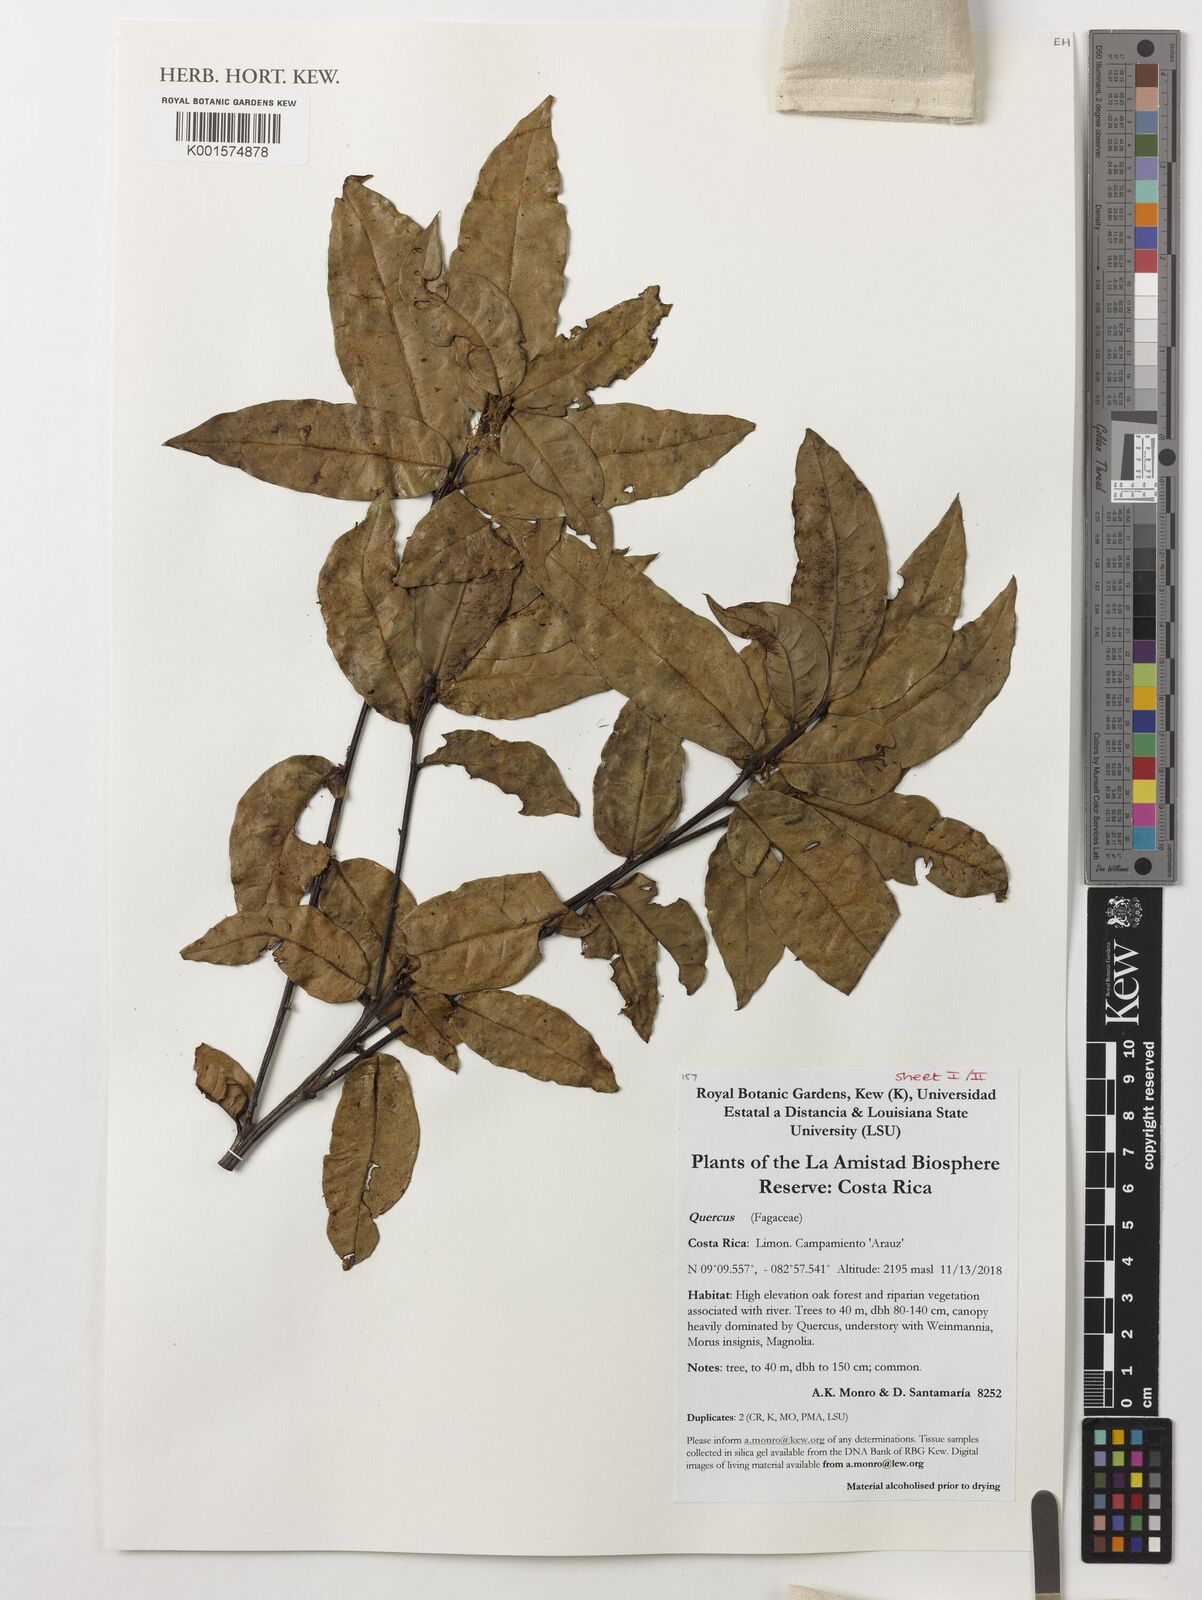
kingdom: Plantae
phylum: Tracheophyta
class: Magnoliopsida
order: Fagales
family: Fagaceae
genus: Quercus
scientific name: Quercus
